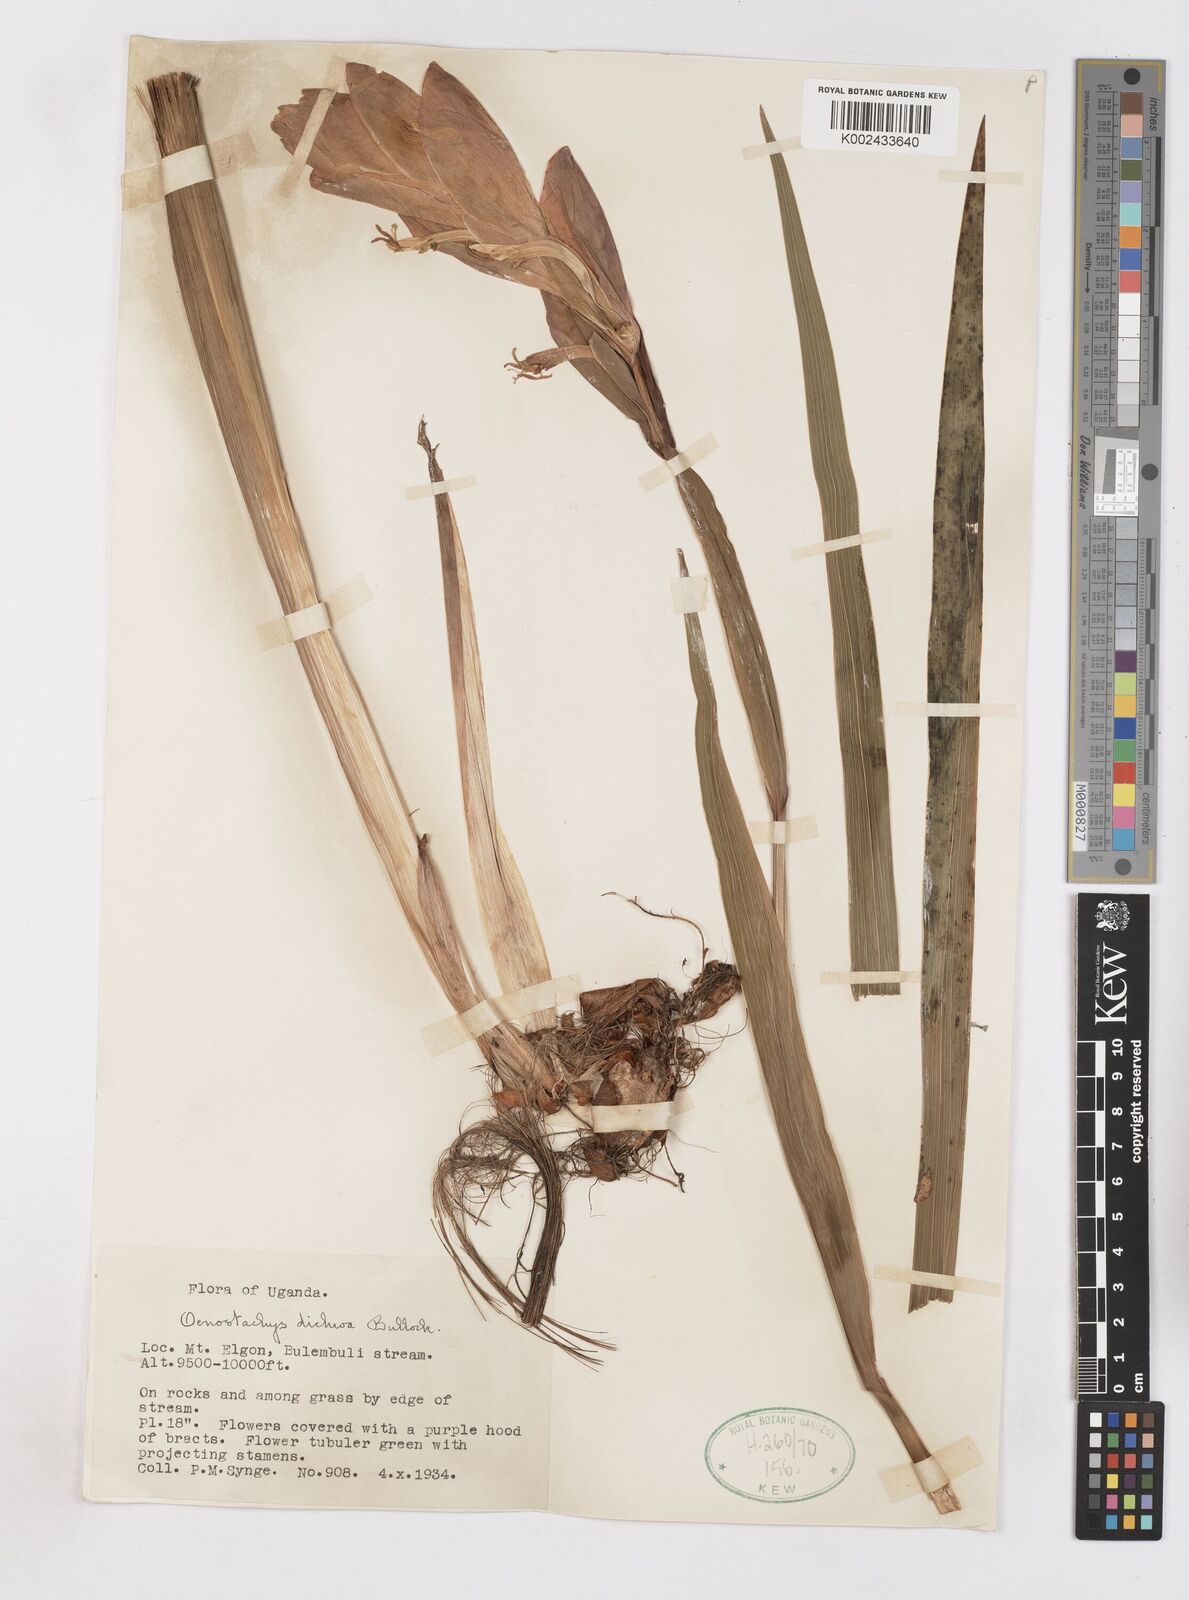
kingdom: Plantae
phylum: Tracheophyta
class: Liliopsida
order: Asparagales
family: Iridaceae
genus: Gladiolus
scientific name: Gladiolus dichrous
